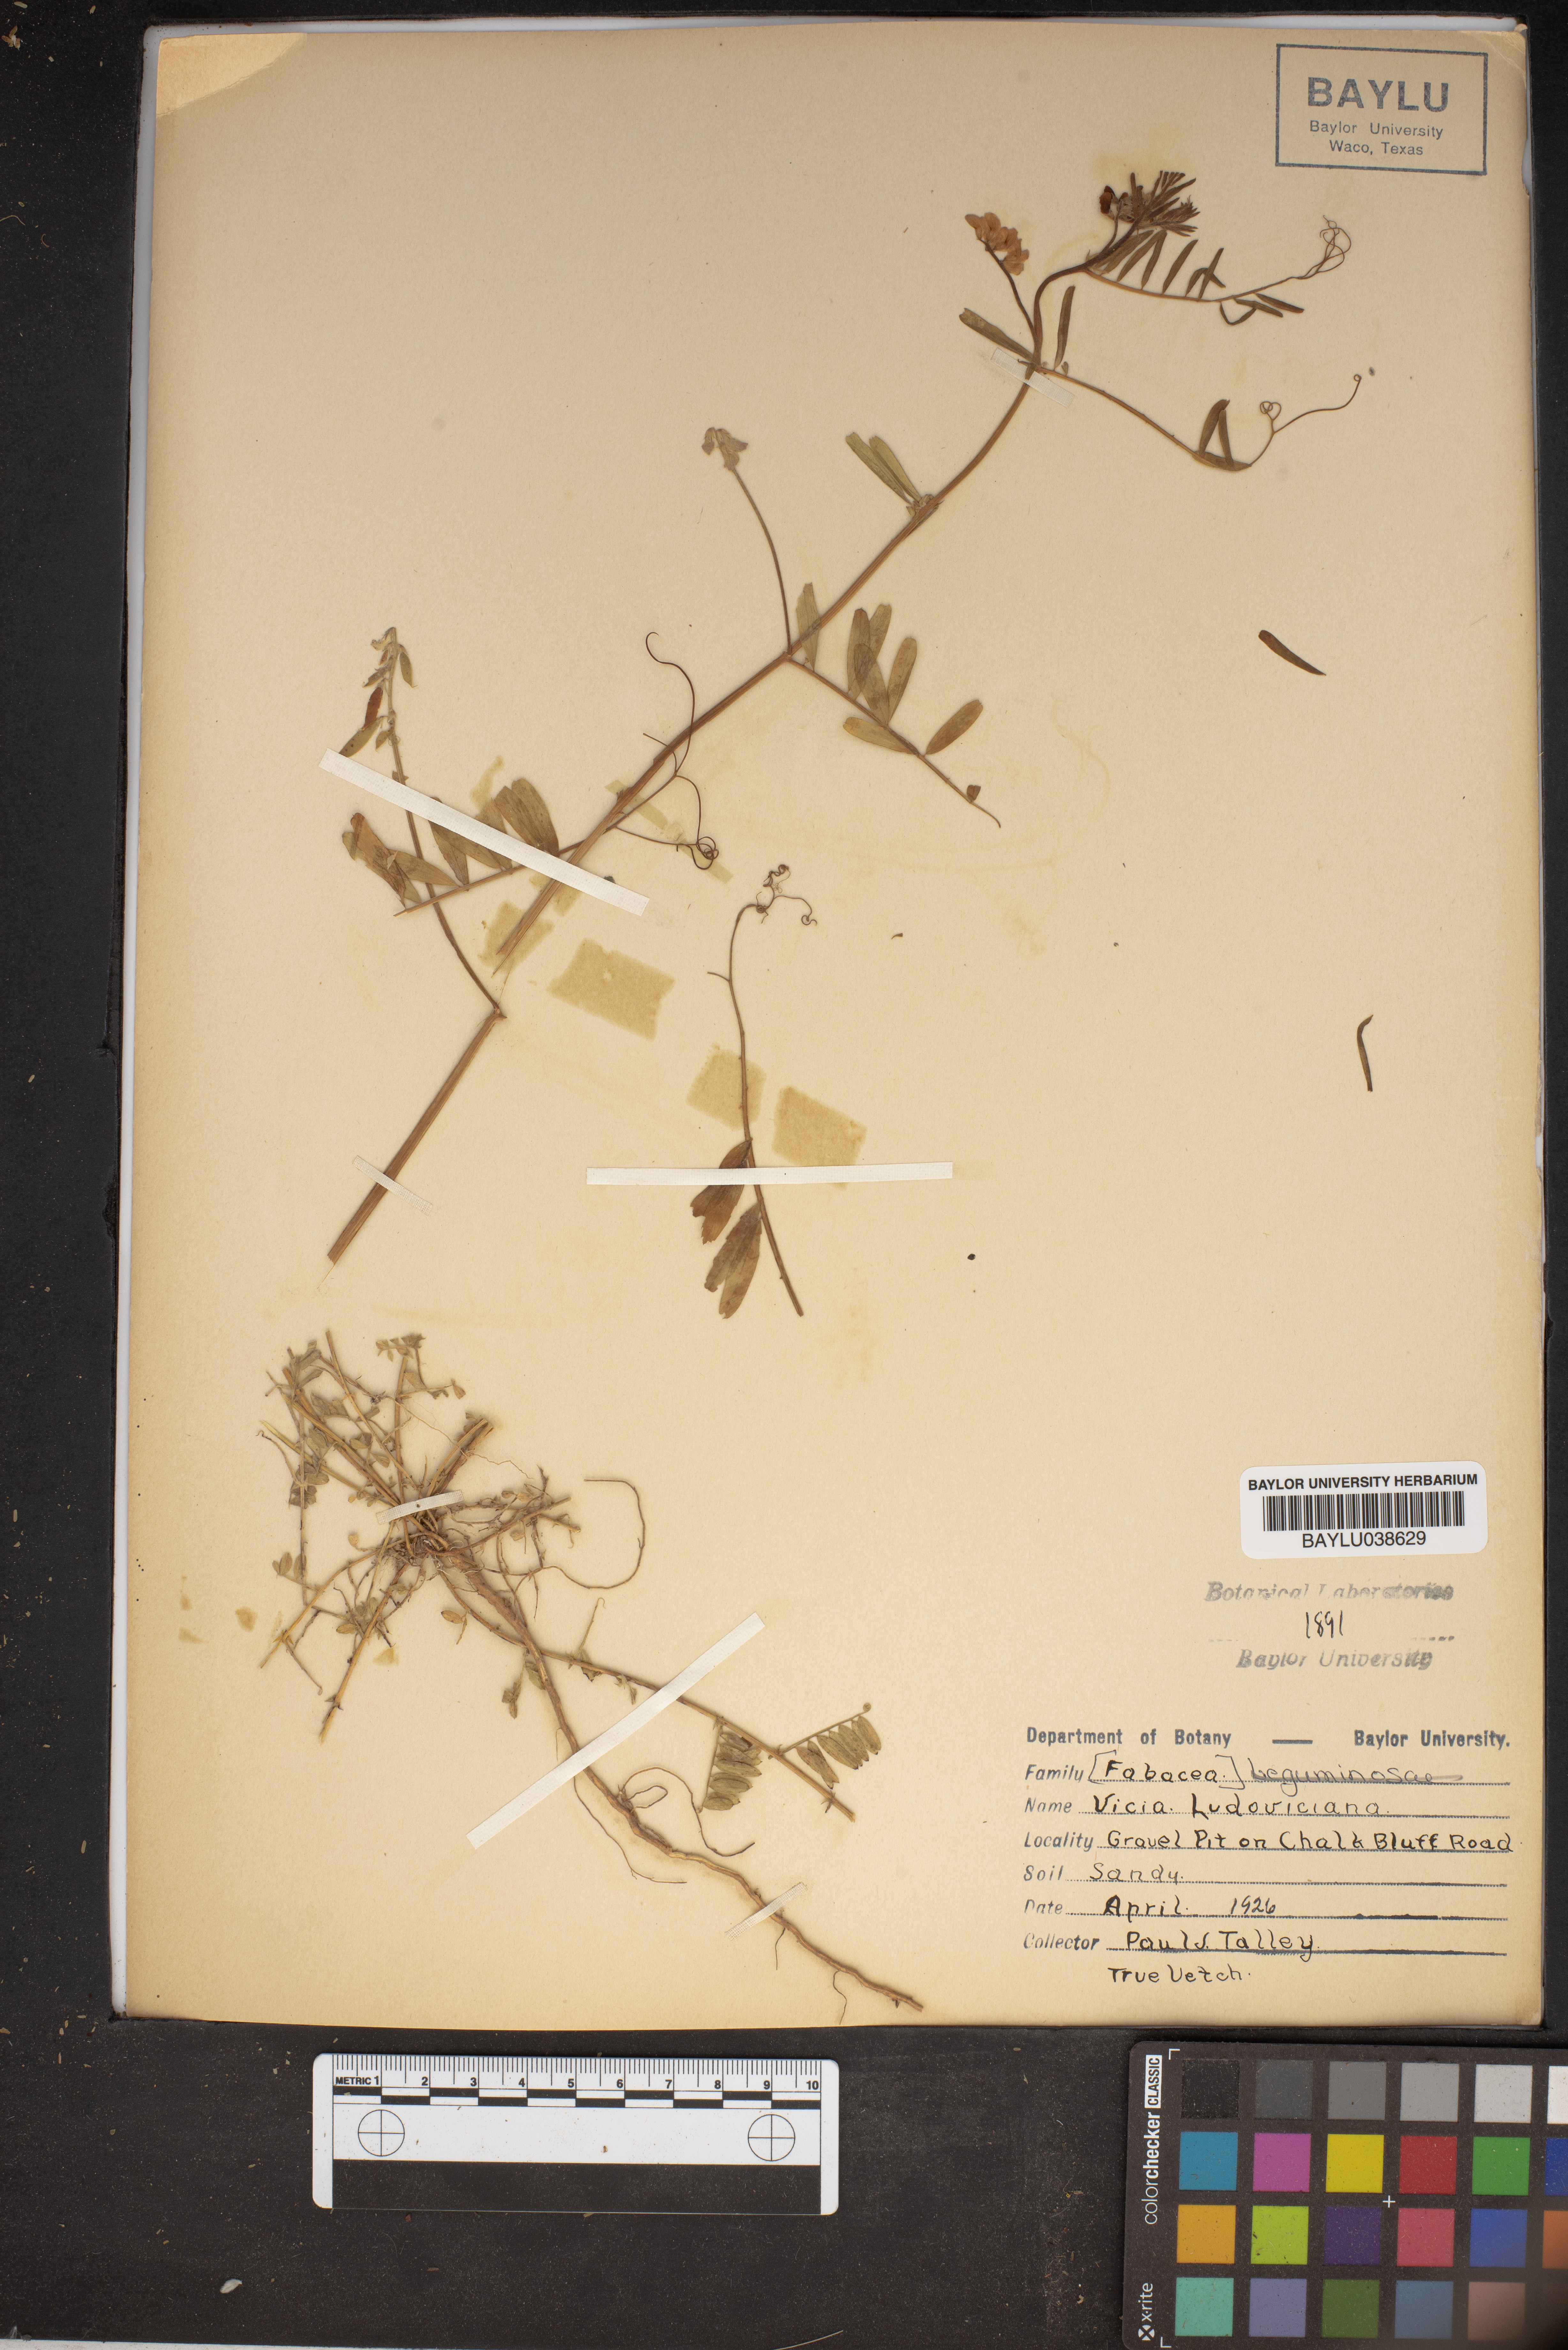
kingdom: Plantae
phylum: Tracheophyta
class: Magnoliopsida
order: Fabales
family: Fabaceae
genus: Vicia
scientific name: Vicia ludoviciana
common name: Louisiana vetch
